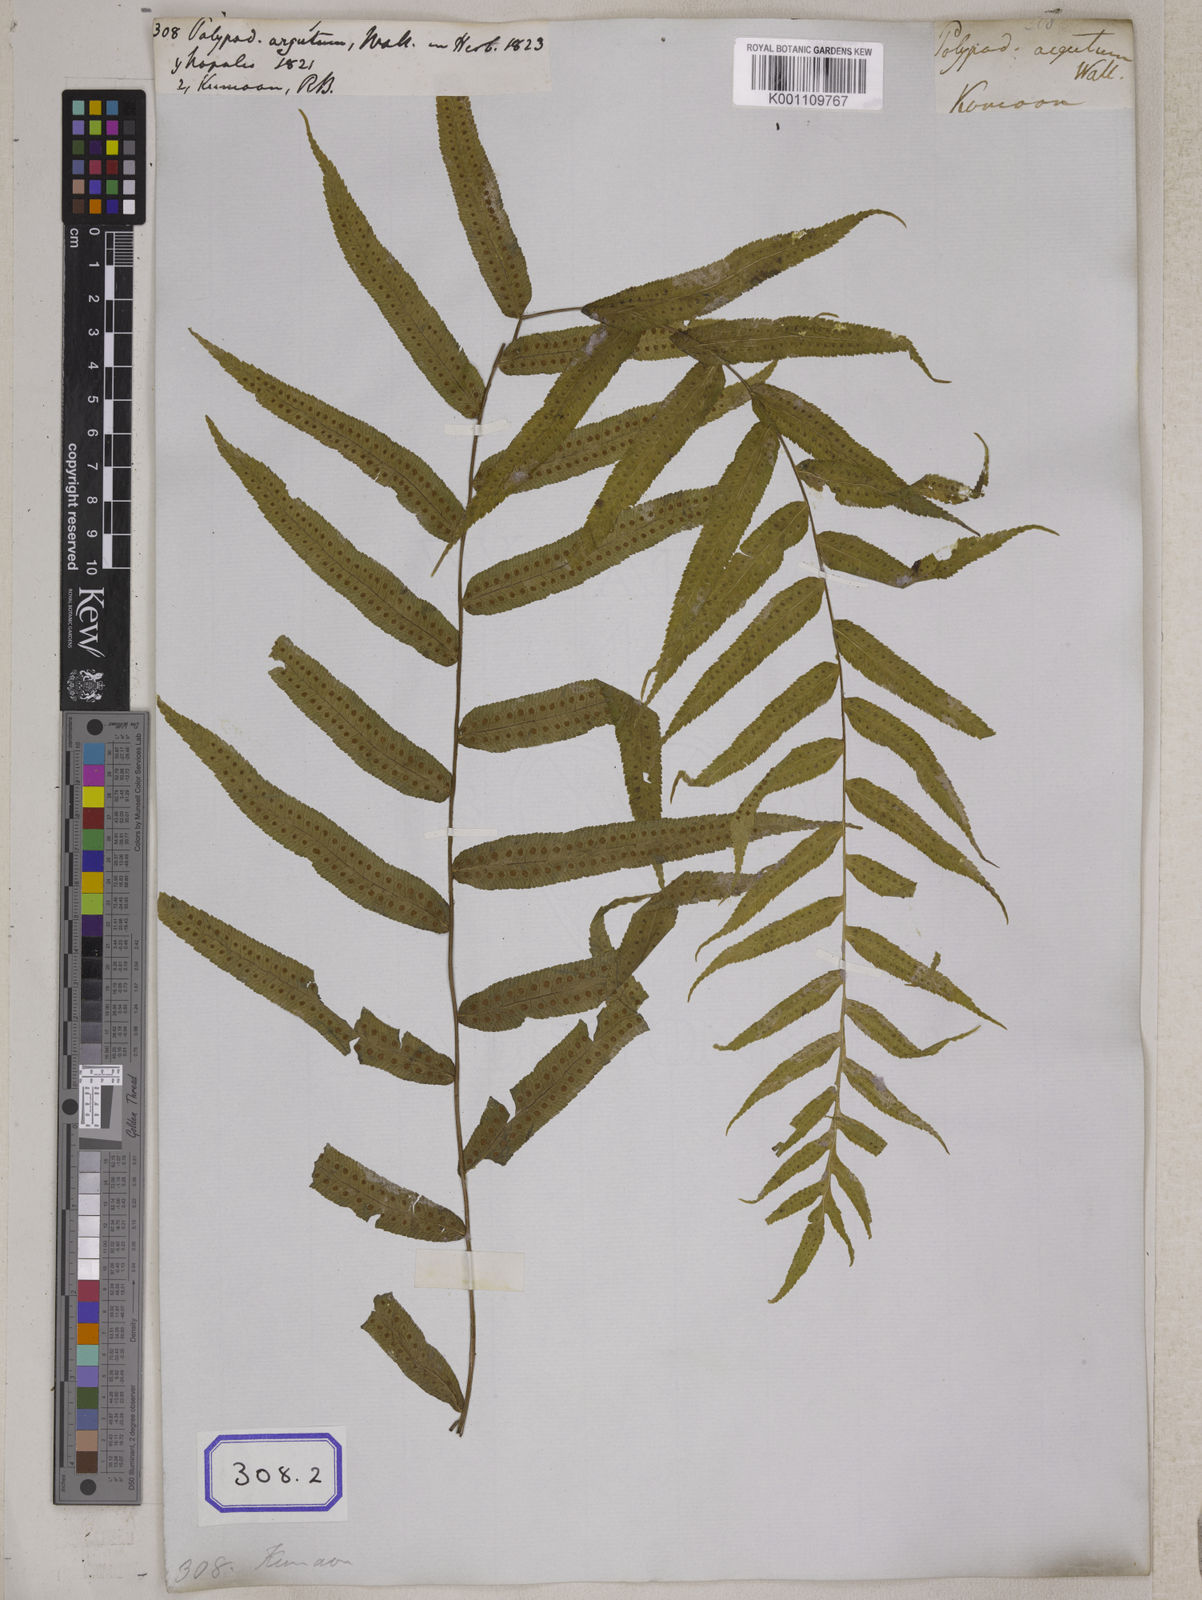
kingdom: Plantae
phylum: Tracheophyta
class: Polypodiopsida
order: Polypodiales
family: Polypodiaceae
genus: Goniophlebium
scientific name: Goniophlebium argutum
